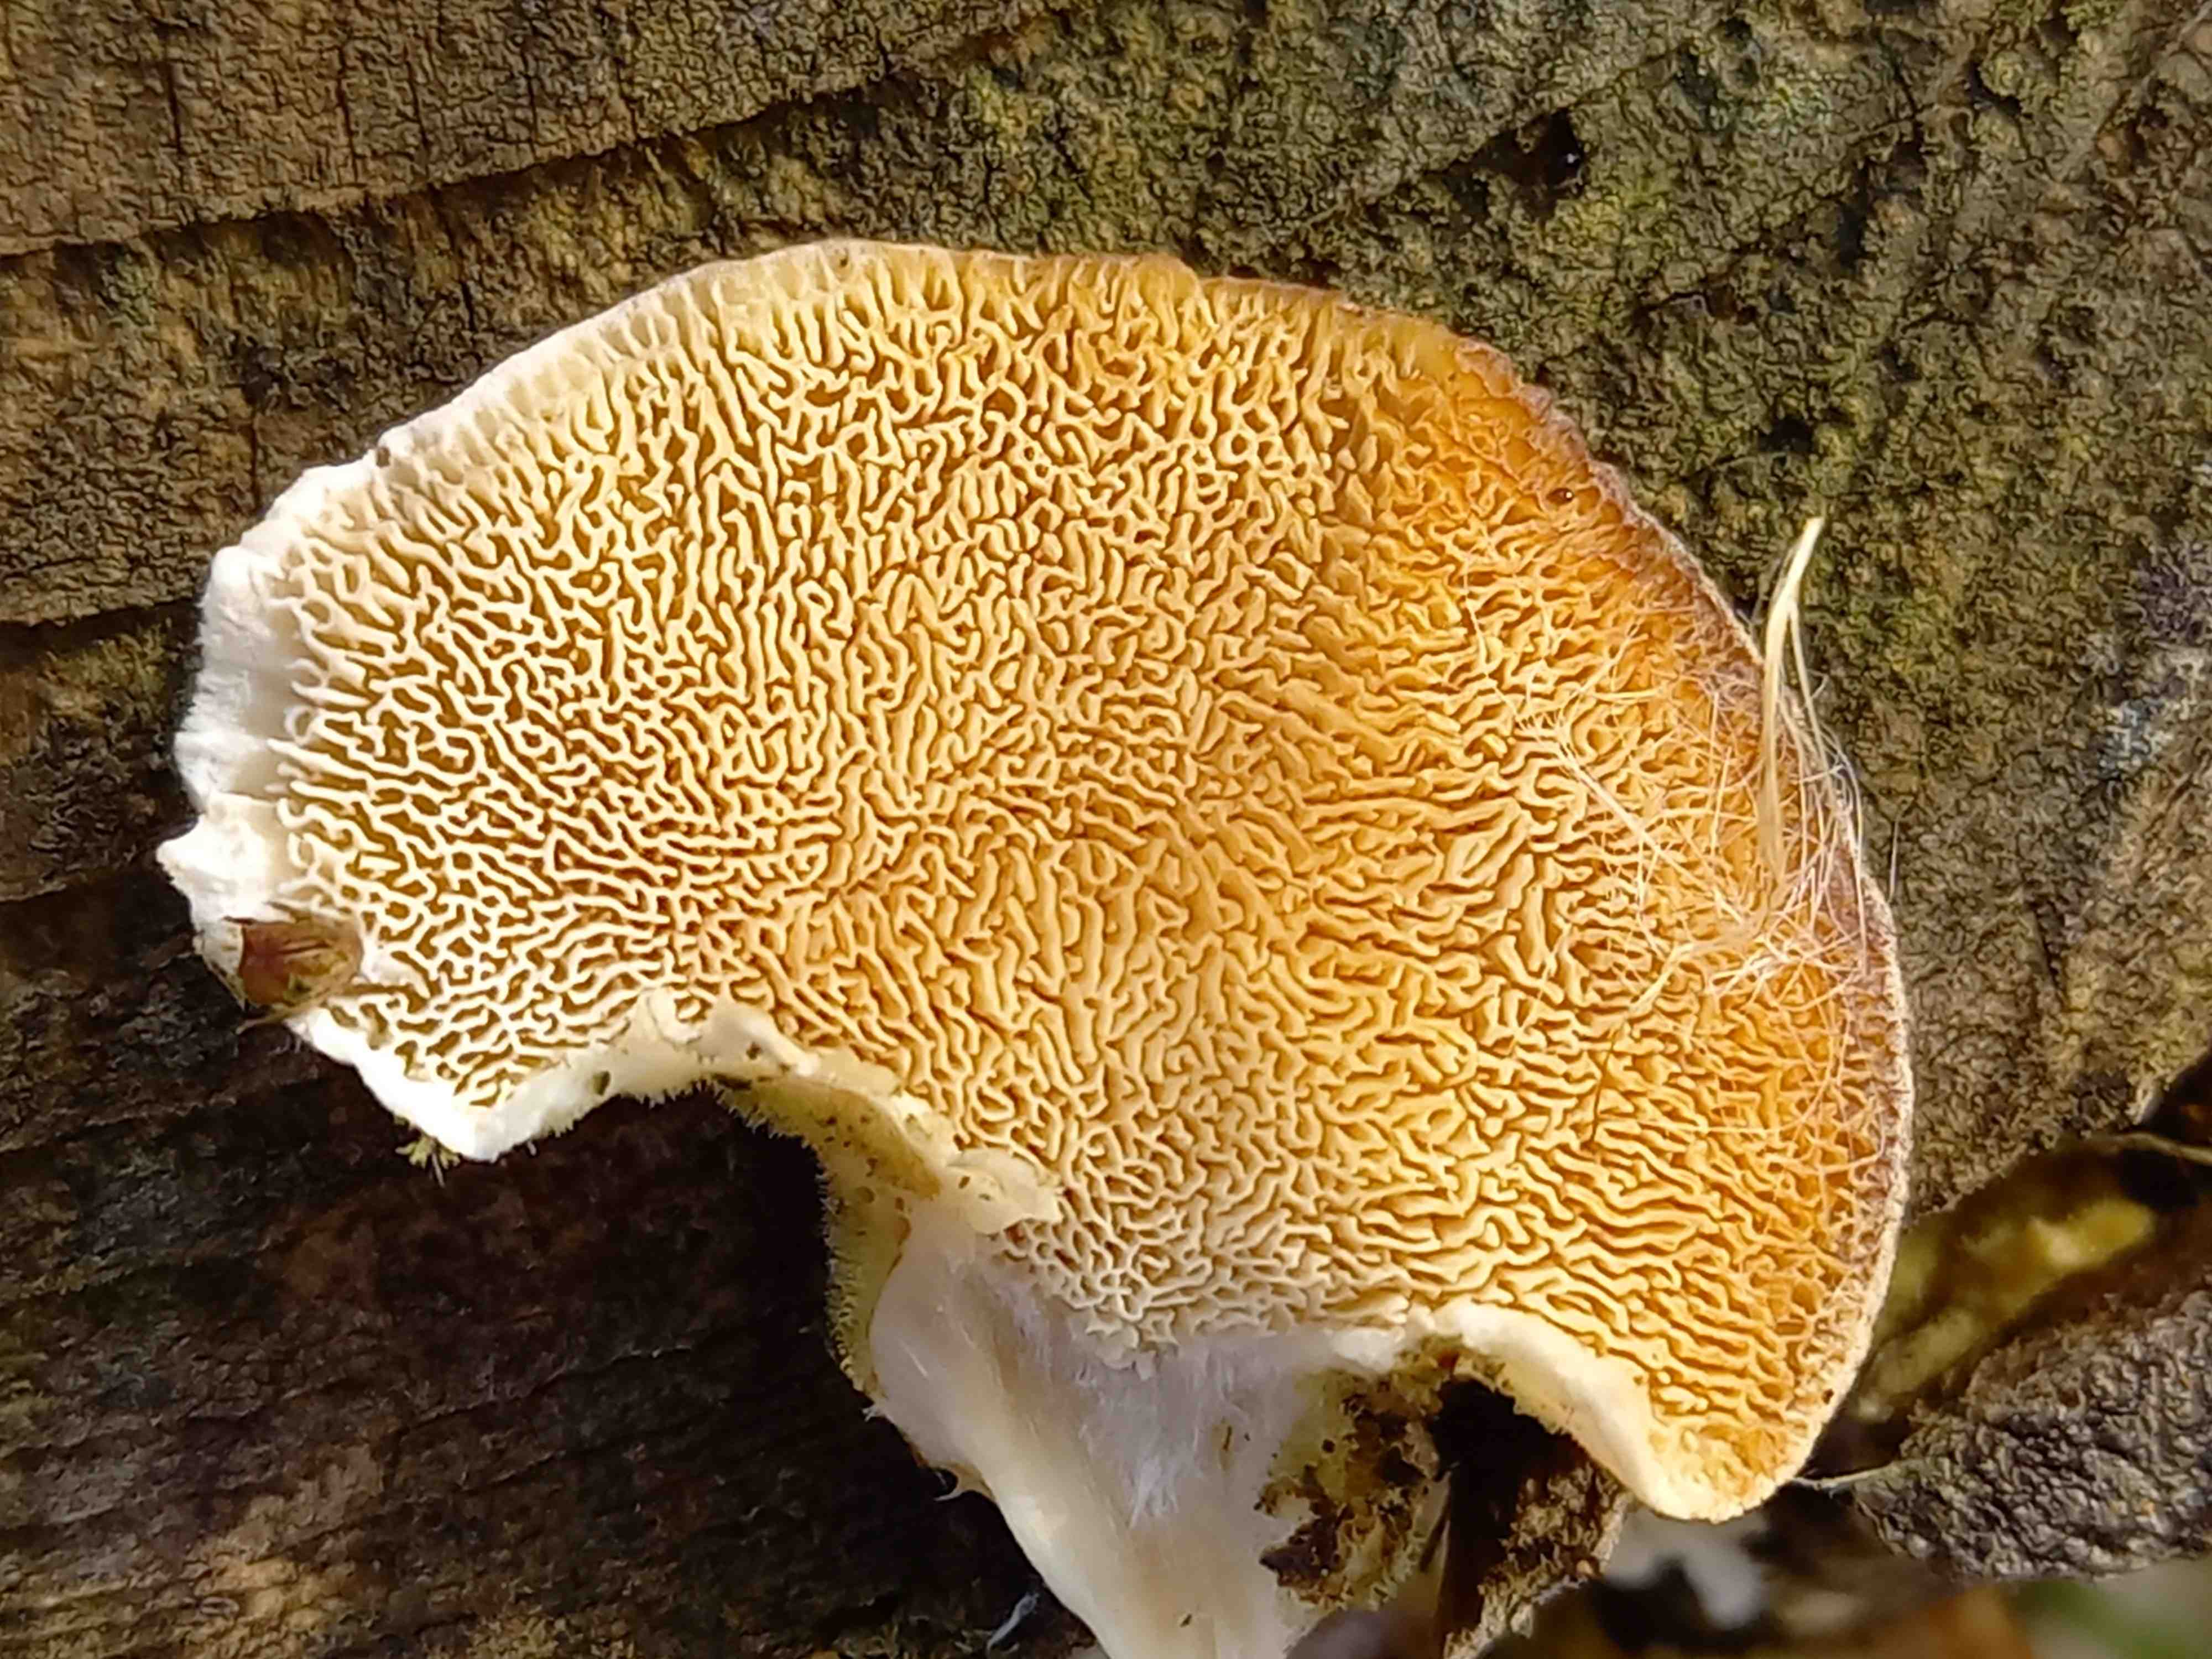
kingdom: Fungi
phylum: Basidiomycota
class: Agaricomycetes
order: Polyporales
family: Polyporaceae
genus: Trametes
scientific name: Trametes ochracea
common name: bæltet læderporesvamp
